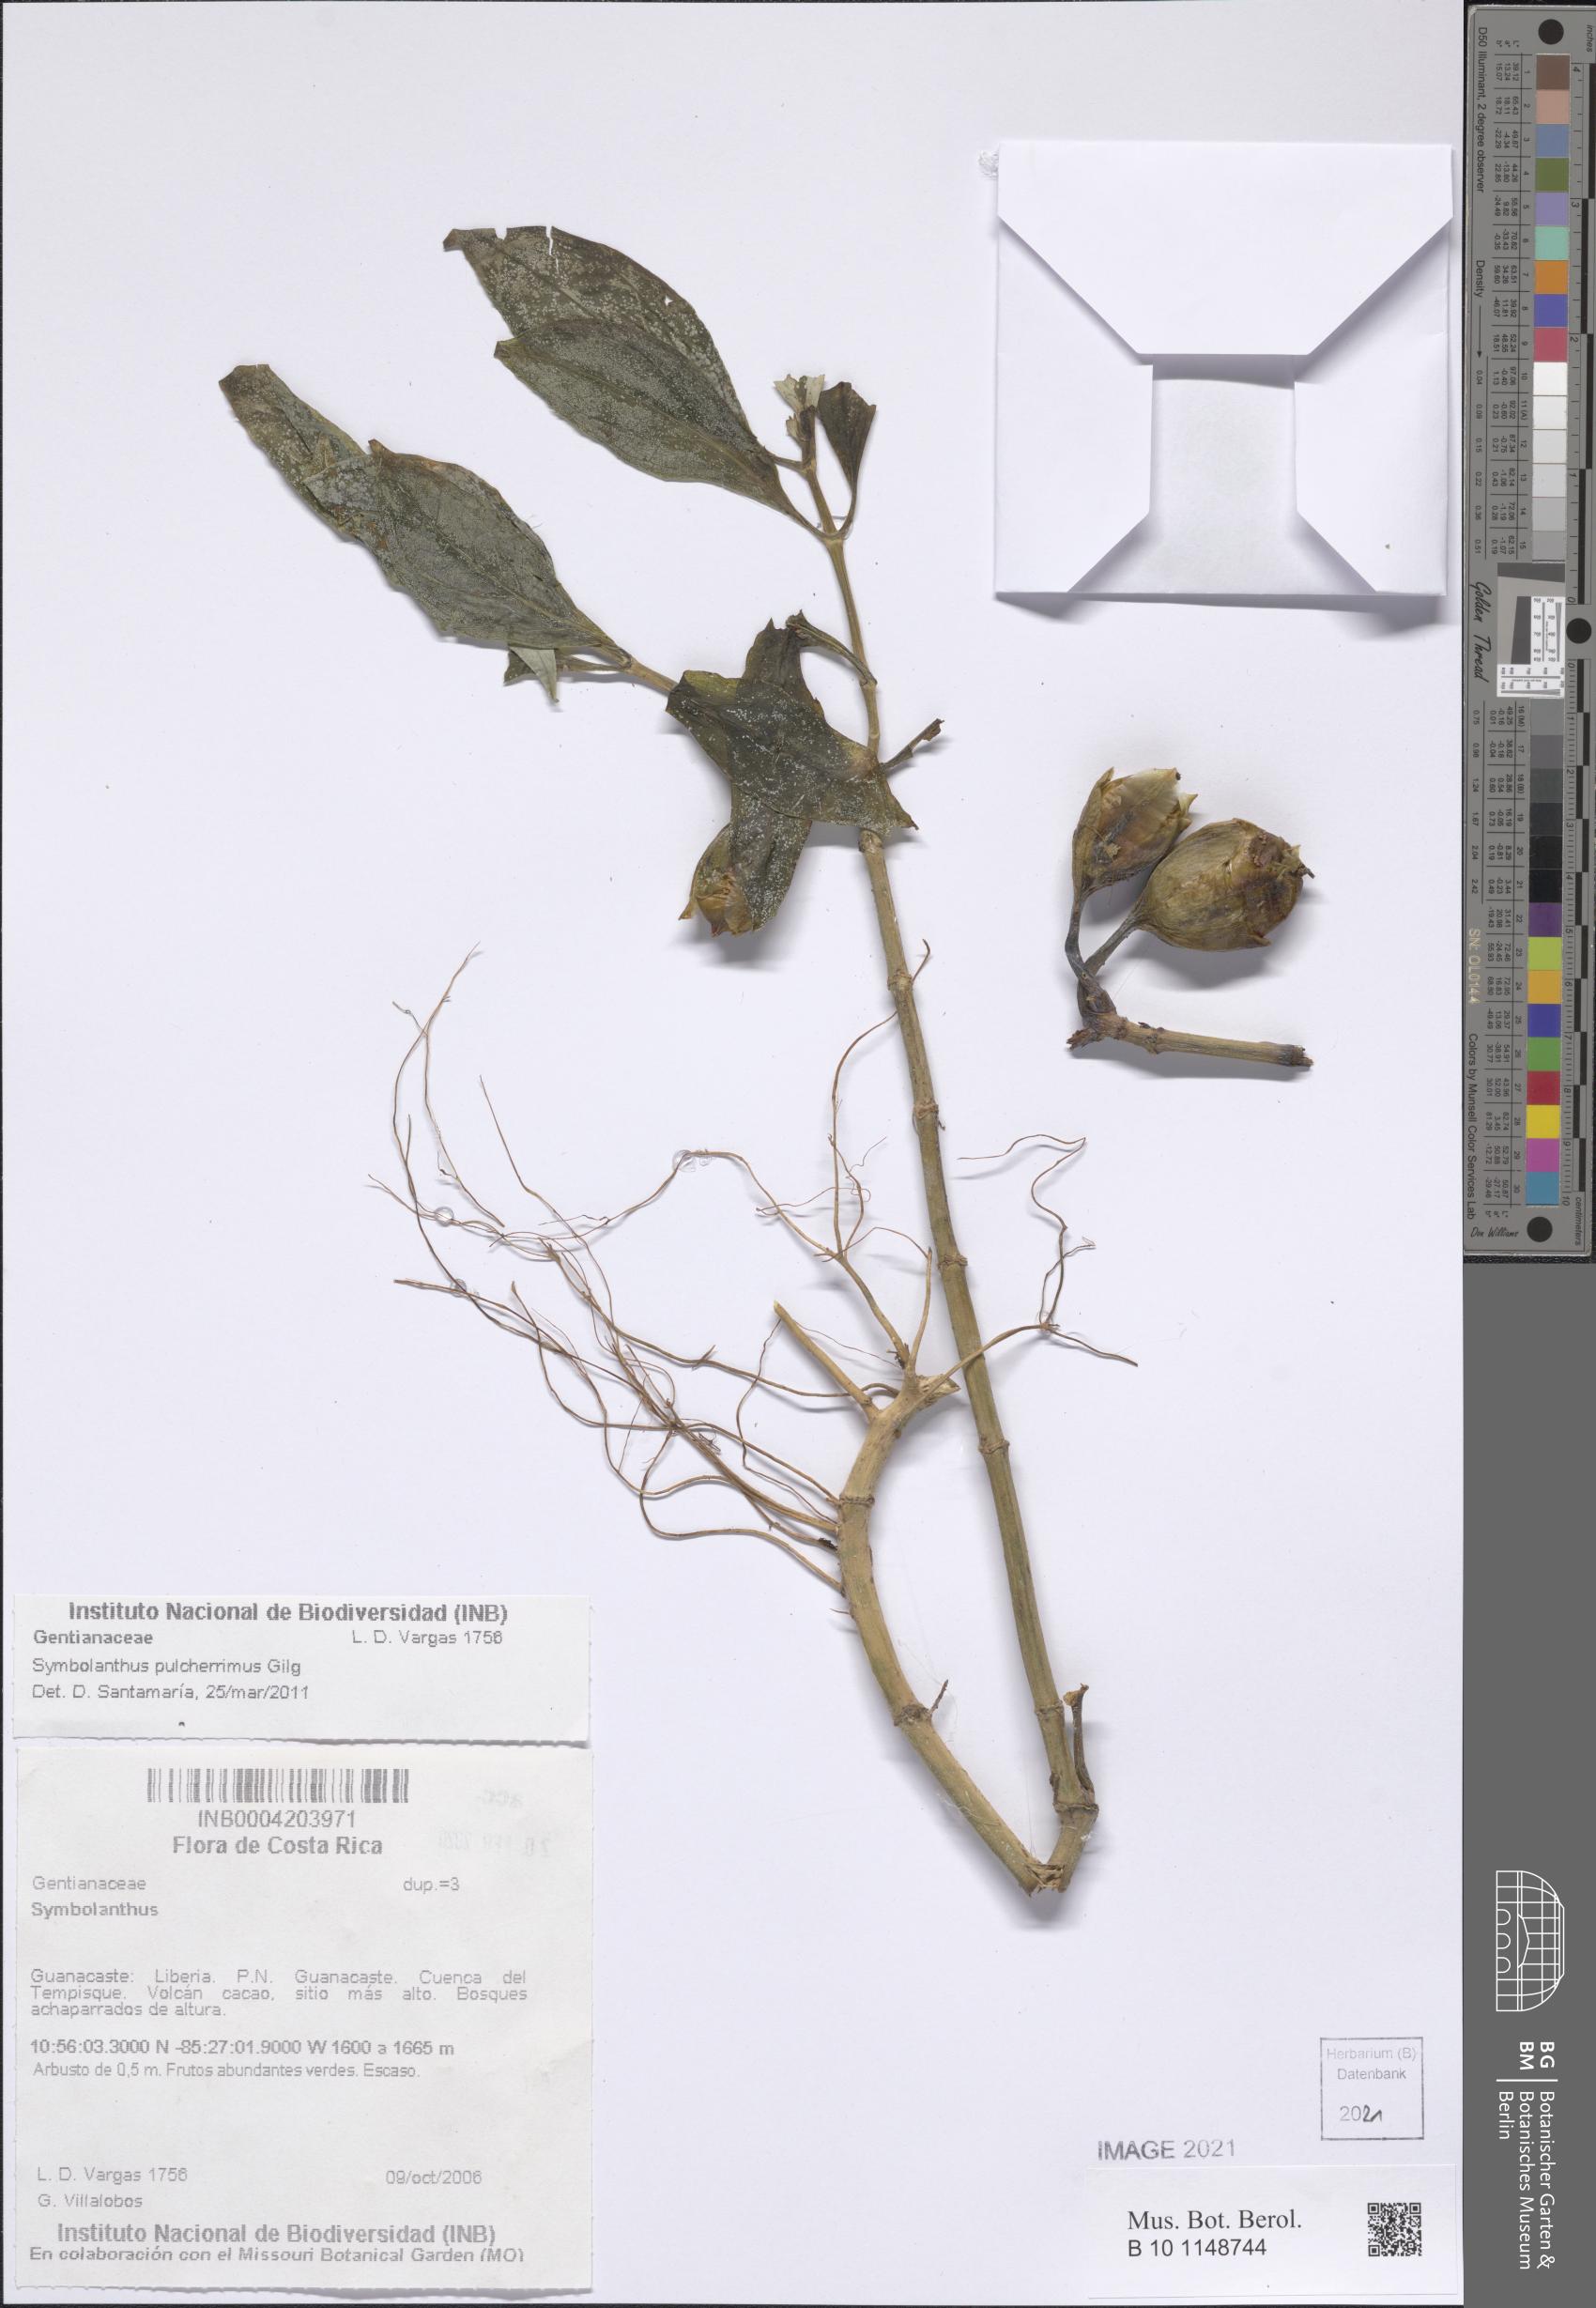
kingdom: Plantae
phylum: Tracheophyta
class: Magnoliopsida
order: Gentianales
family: Gentianaceae
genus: Symbolanthus
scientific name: Symbolanthus
